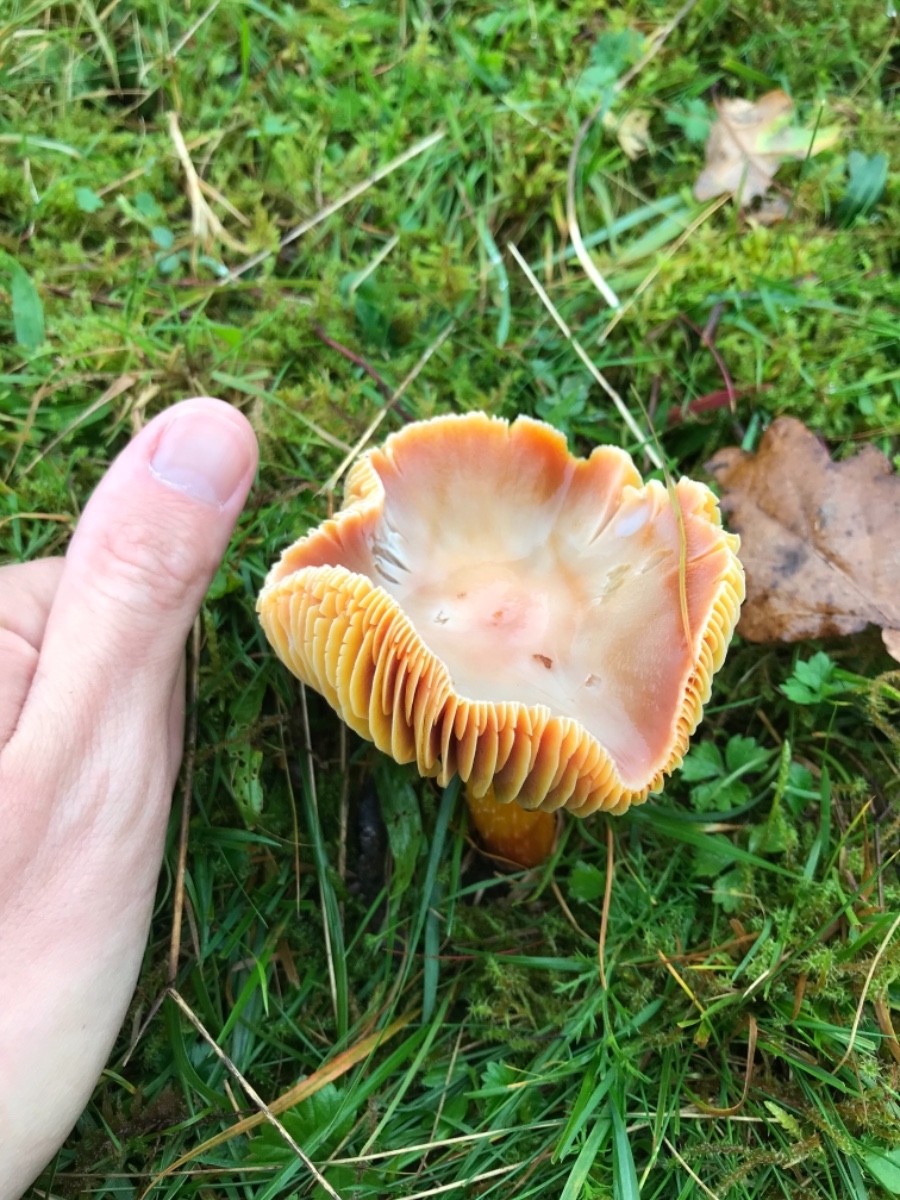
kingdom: Fungi
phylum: Basidiomycota
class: Agaricomycetes
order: Agaricales
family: Hygrophoraceae
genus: Hygrocybe
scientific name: Hygrocybe punicea
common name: skarlagen-vokshat
